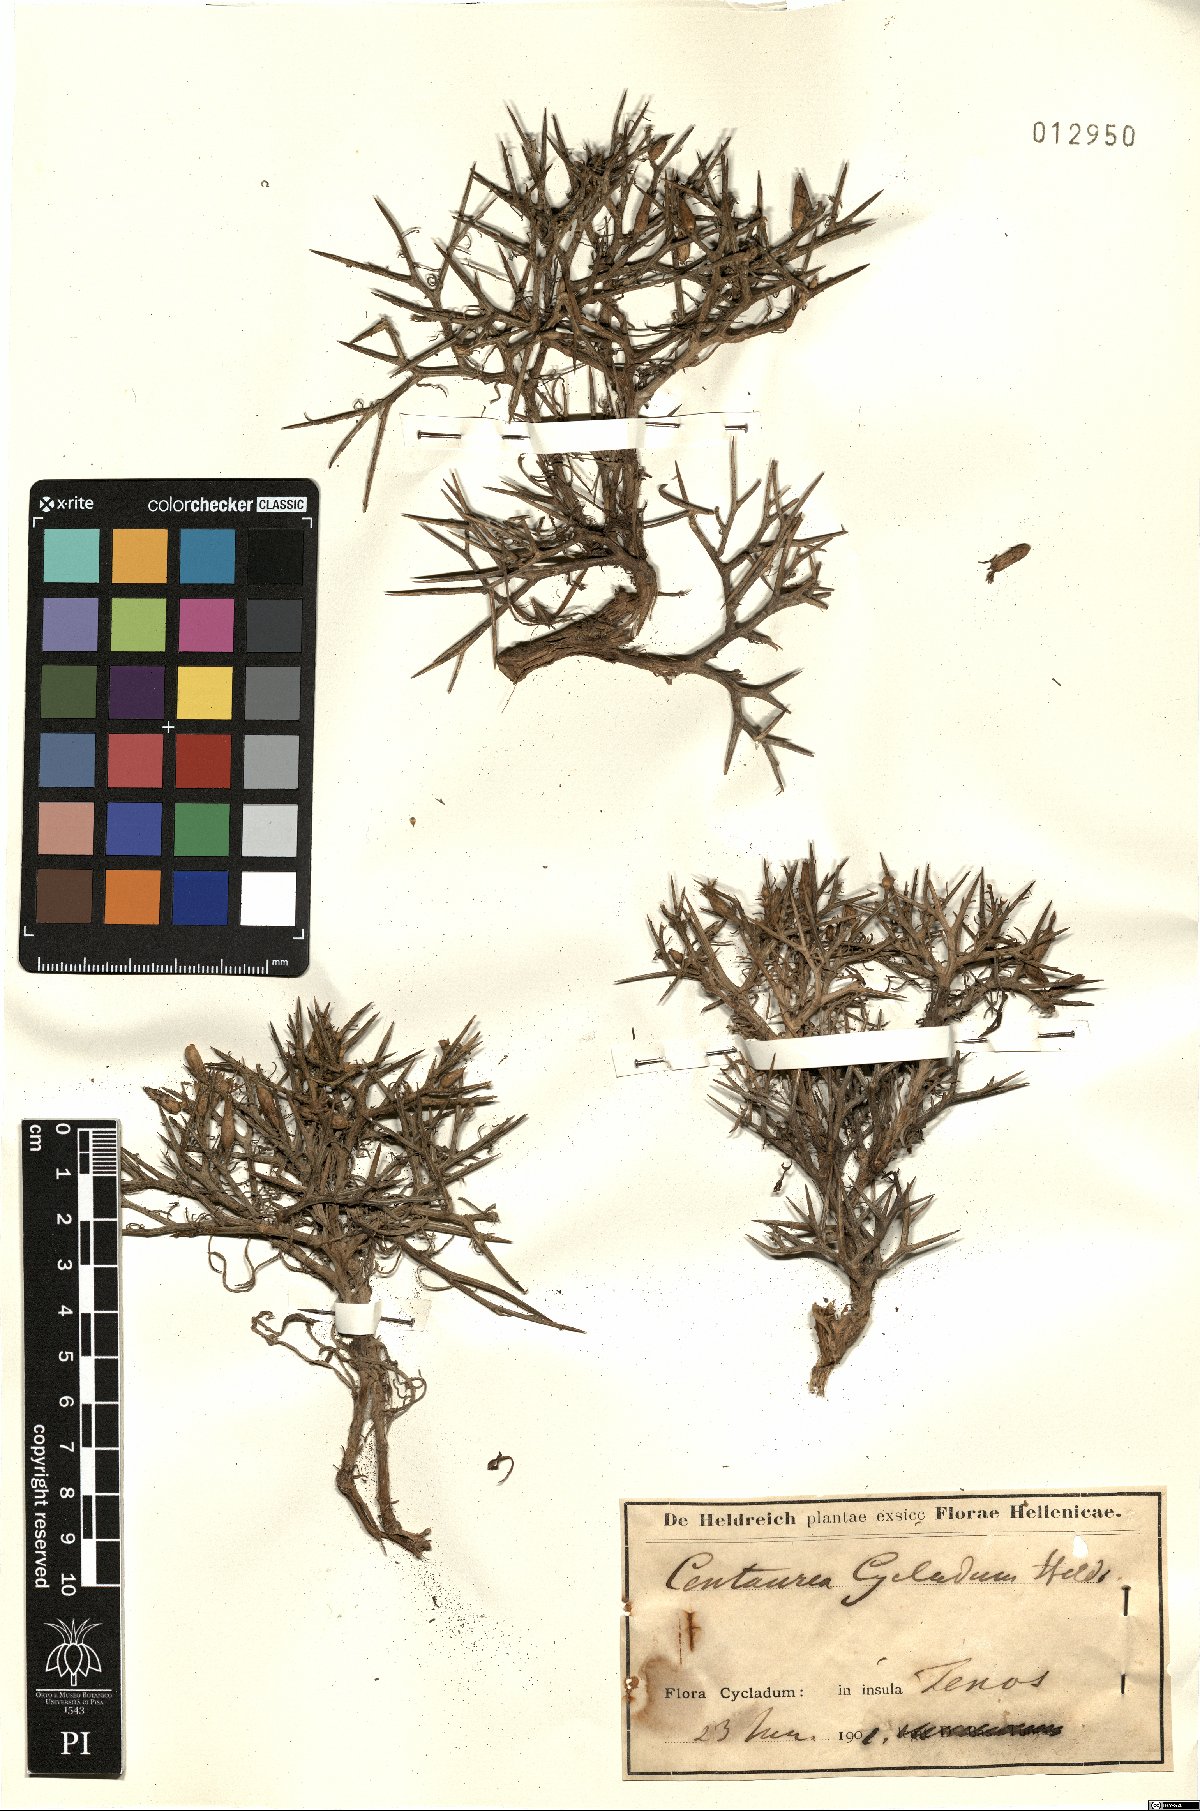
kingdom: Plantae
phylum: Tracheophyta
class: Magnoliopsida
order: Asterales
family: Asteraceae
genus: Centaurea
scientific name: Centaurea spinosa
